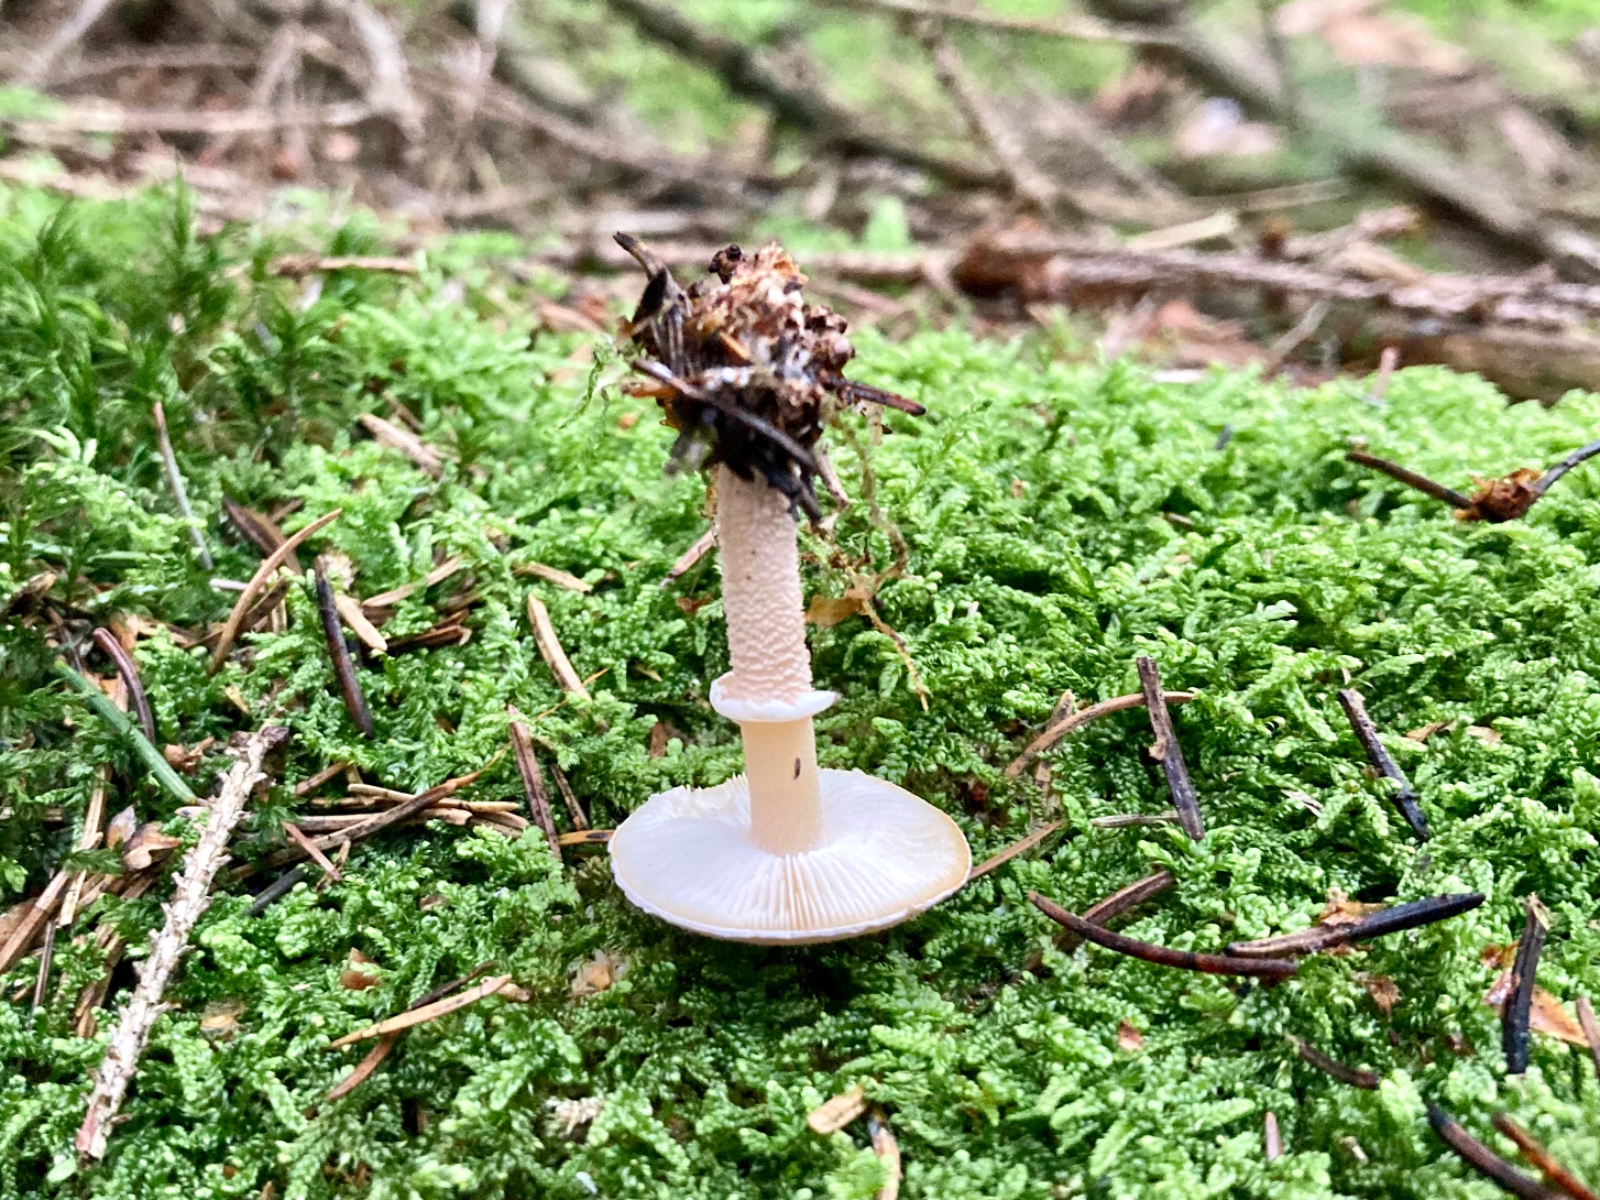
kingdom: Fungi
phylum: Basidiomycota
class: Agaricomycetes
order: Agaricales
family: Tricholomataceae
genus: Cystoderma
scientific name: Cystoderma carcharias
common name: rødgrå grynhat
